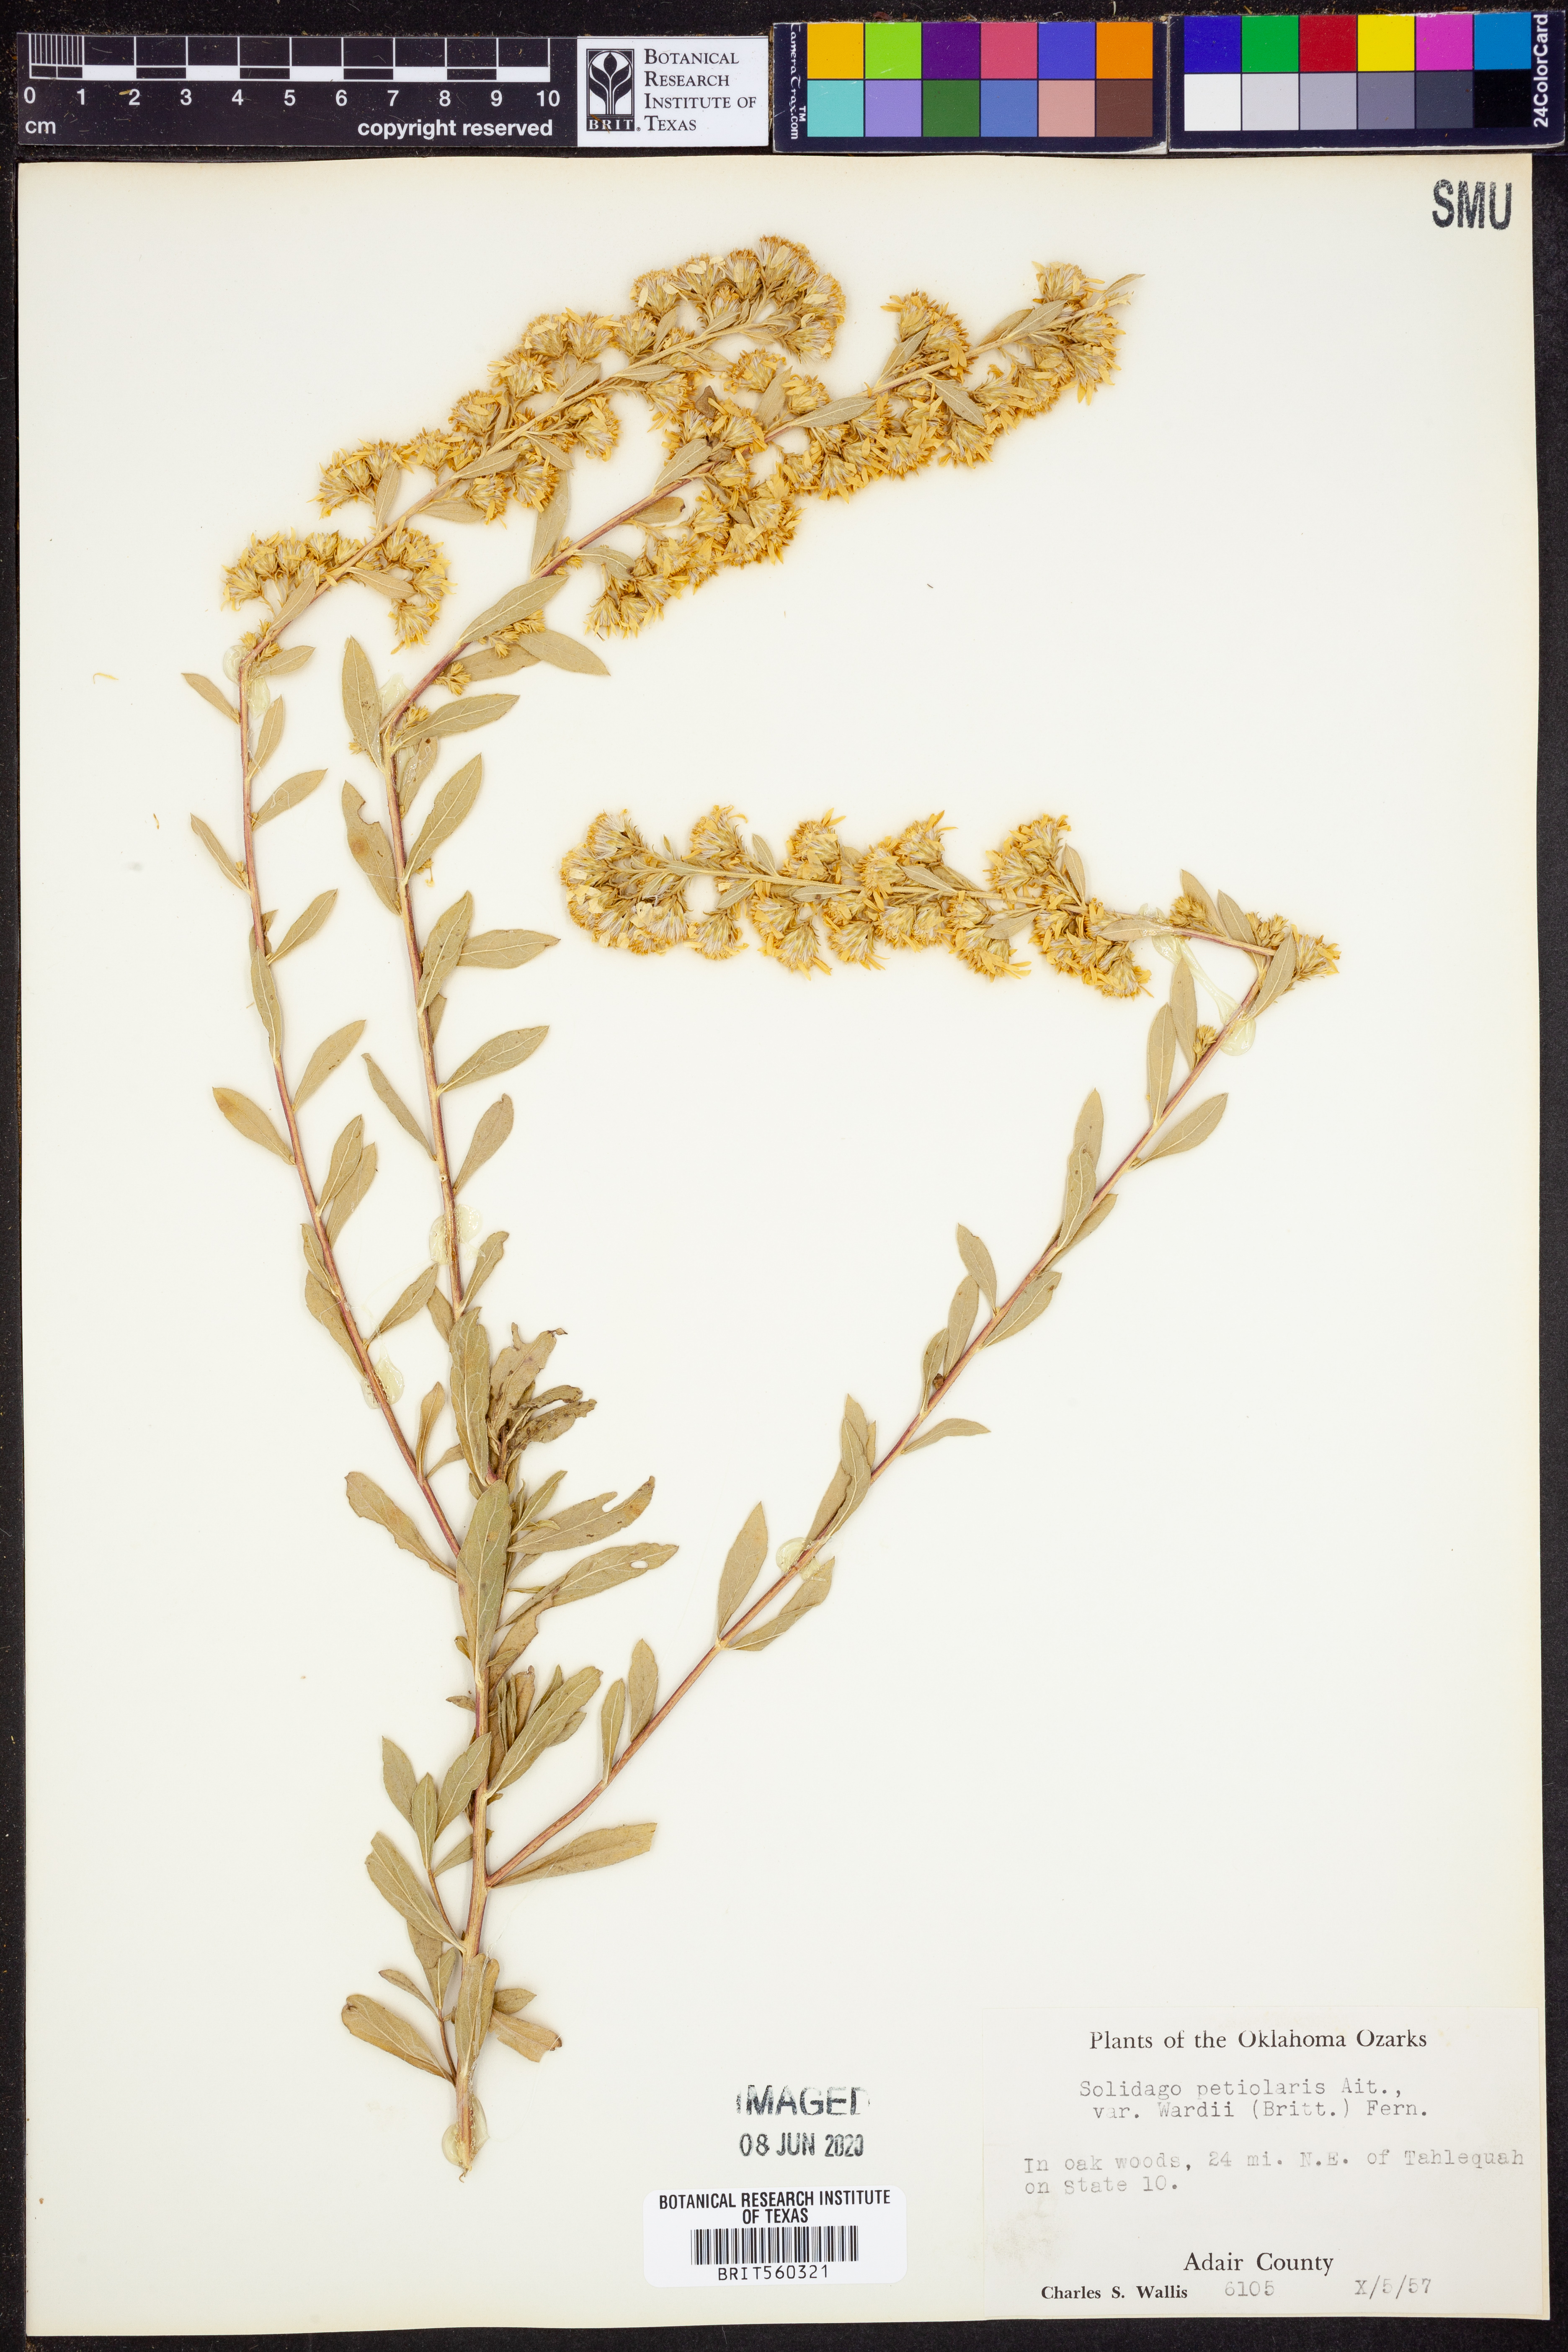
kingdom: Plantae
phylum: Tracheophyta
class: Magnoliopsida
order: Asterales
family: Asteraceae
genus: Solidago
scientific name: Solidago petiolaris
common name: Downy ragged goldenrod
